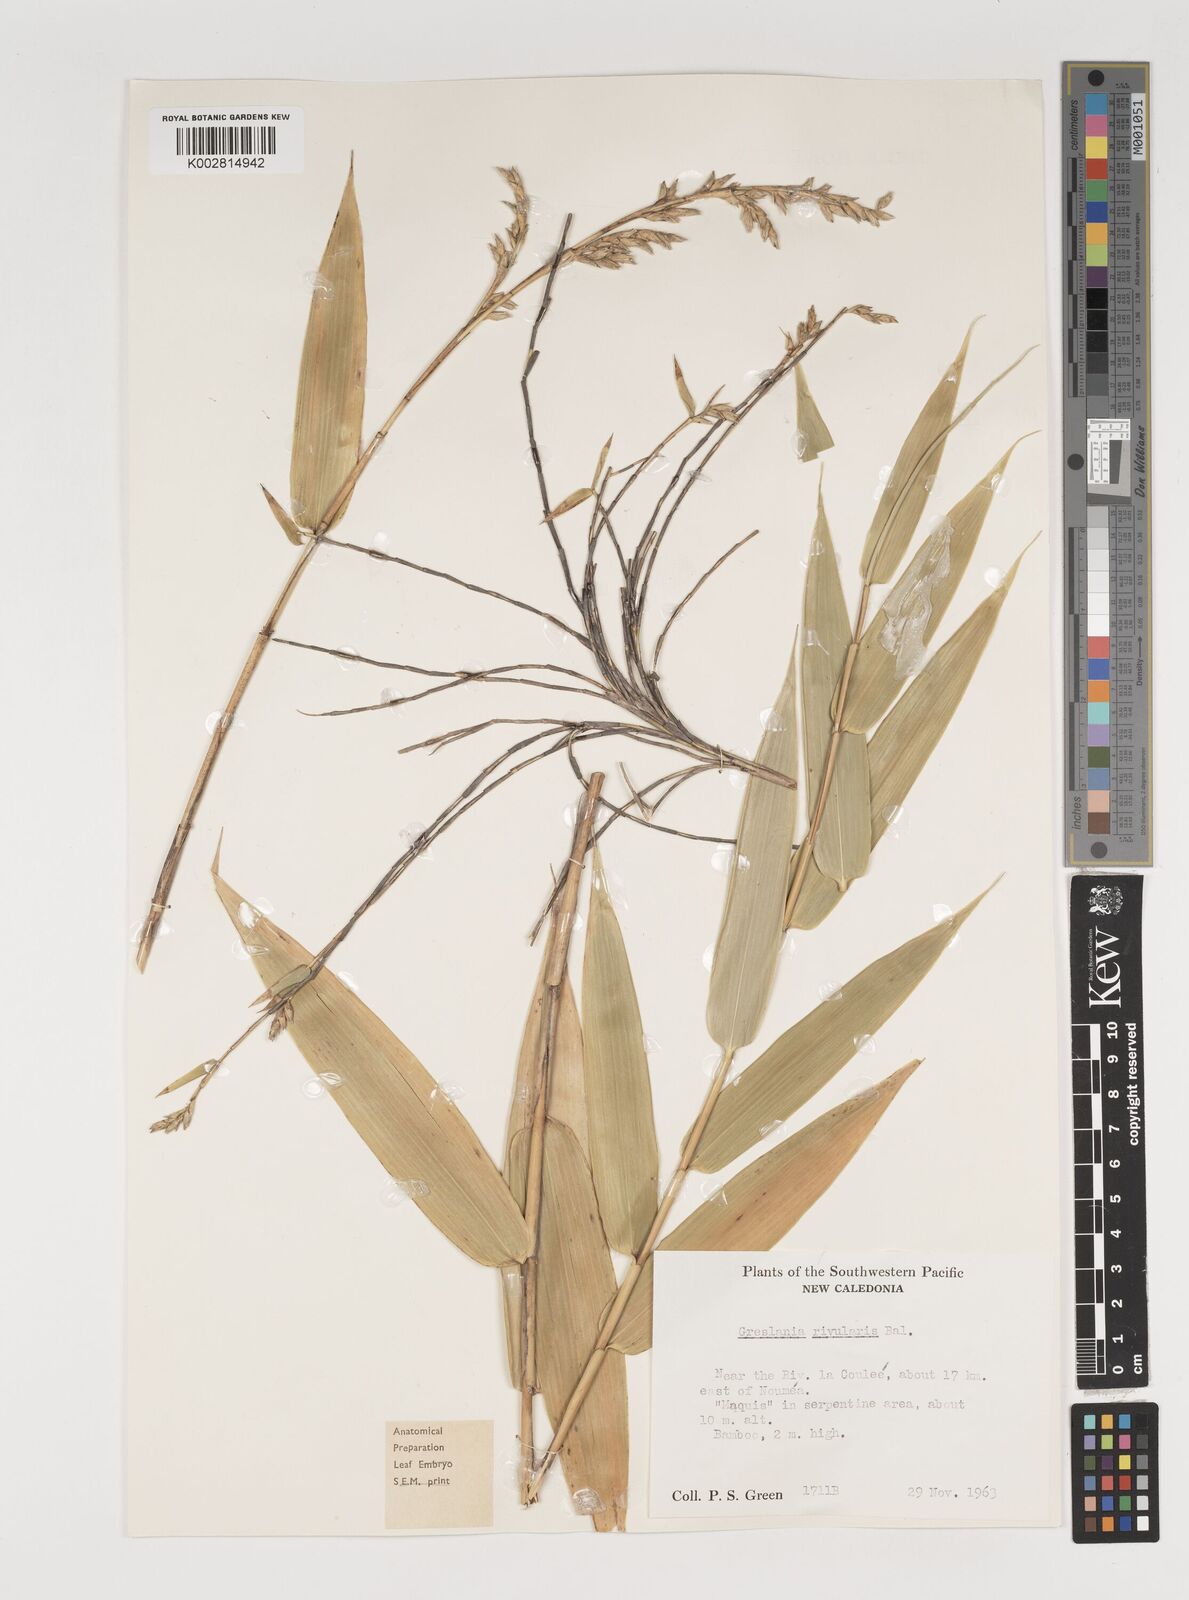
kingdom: Plantae
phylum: Tracheophyta
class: Liliopsida
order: Poales
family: Poaceae
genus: Greslania
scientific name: Greslania rivularis
